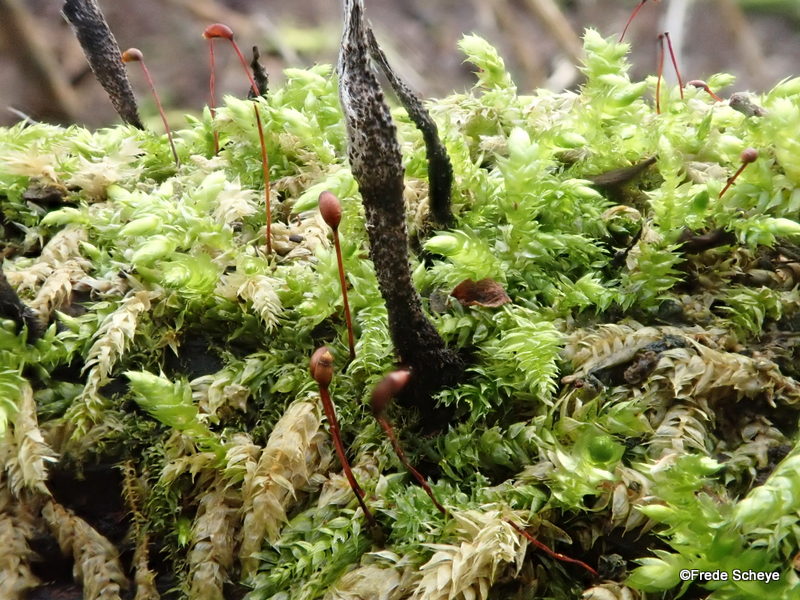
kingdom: Fungi
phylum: Ascomycota
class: Sordariomycetes
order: Xylariales
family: Xylariaceae
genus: Xylaria
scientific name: Xylaria hypoxylon
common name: grenet stødsvamp
